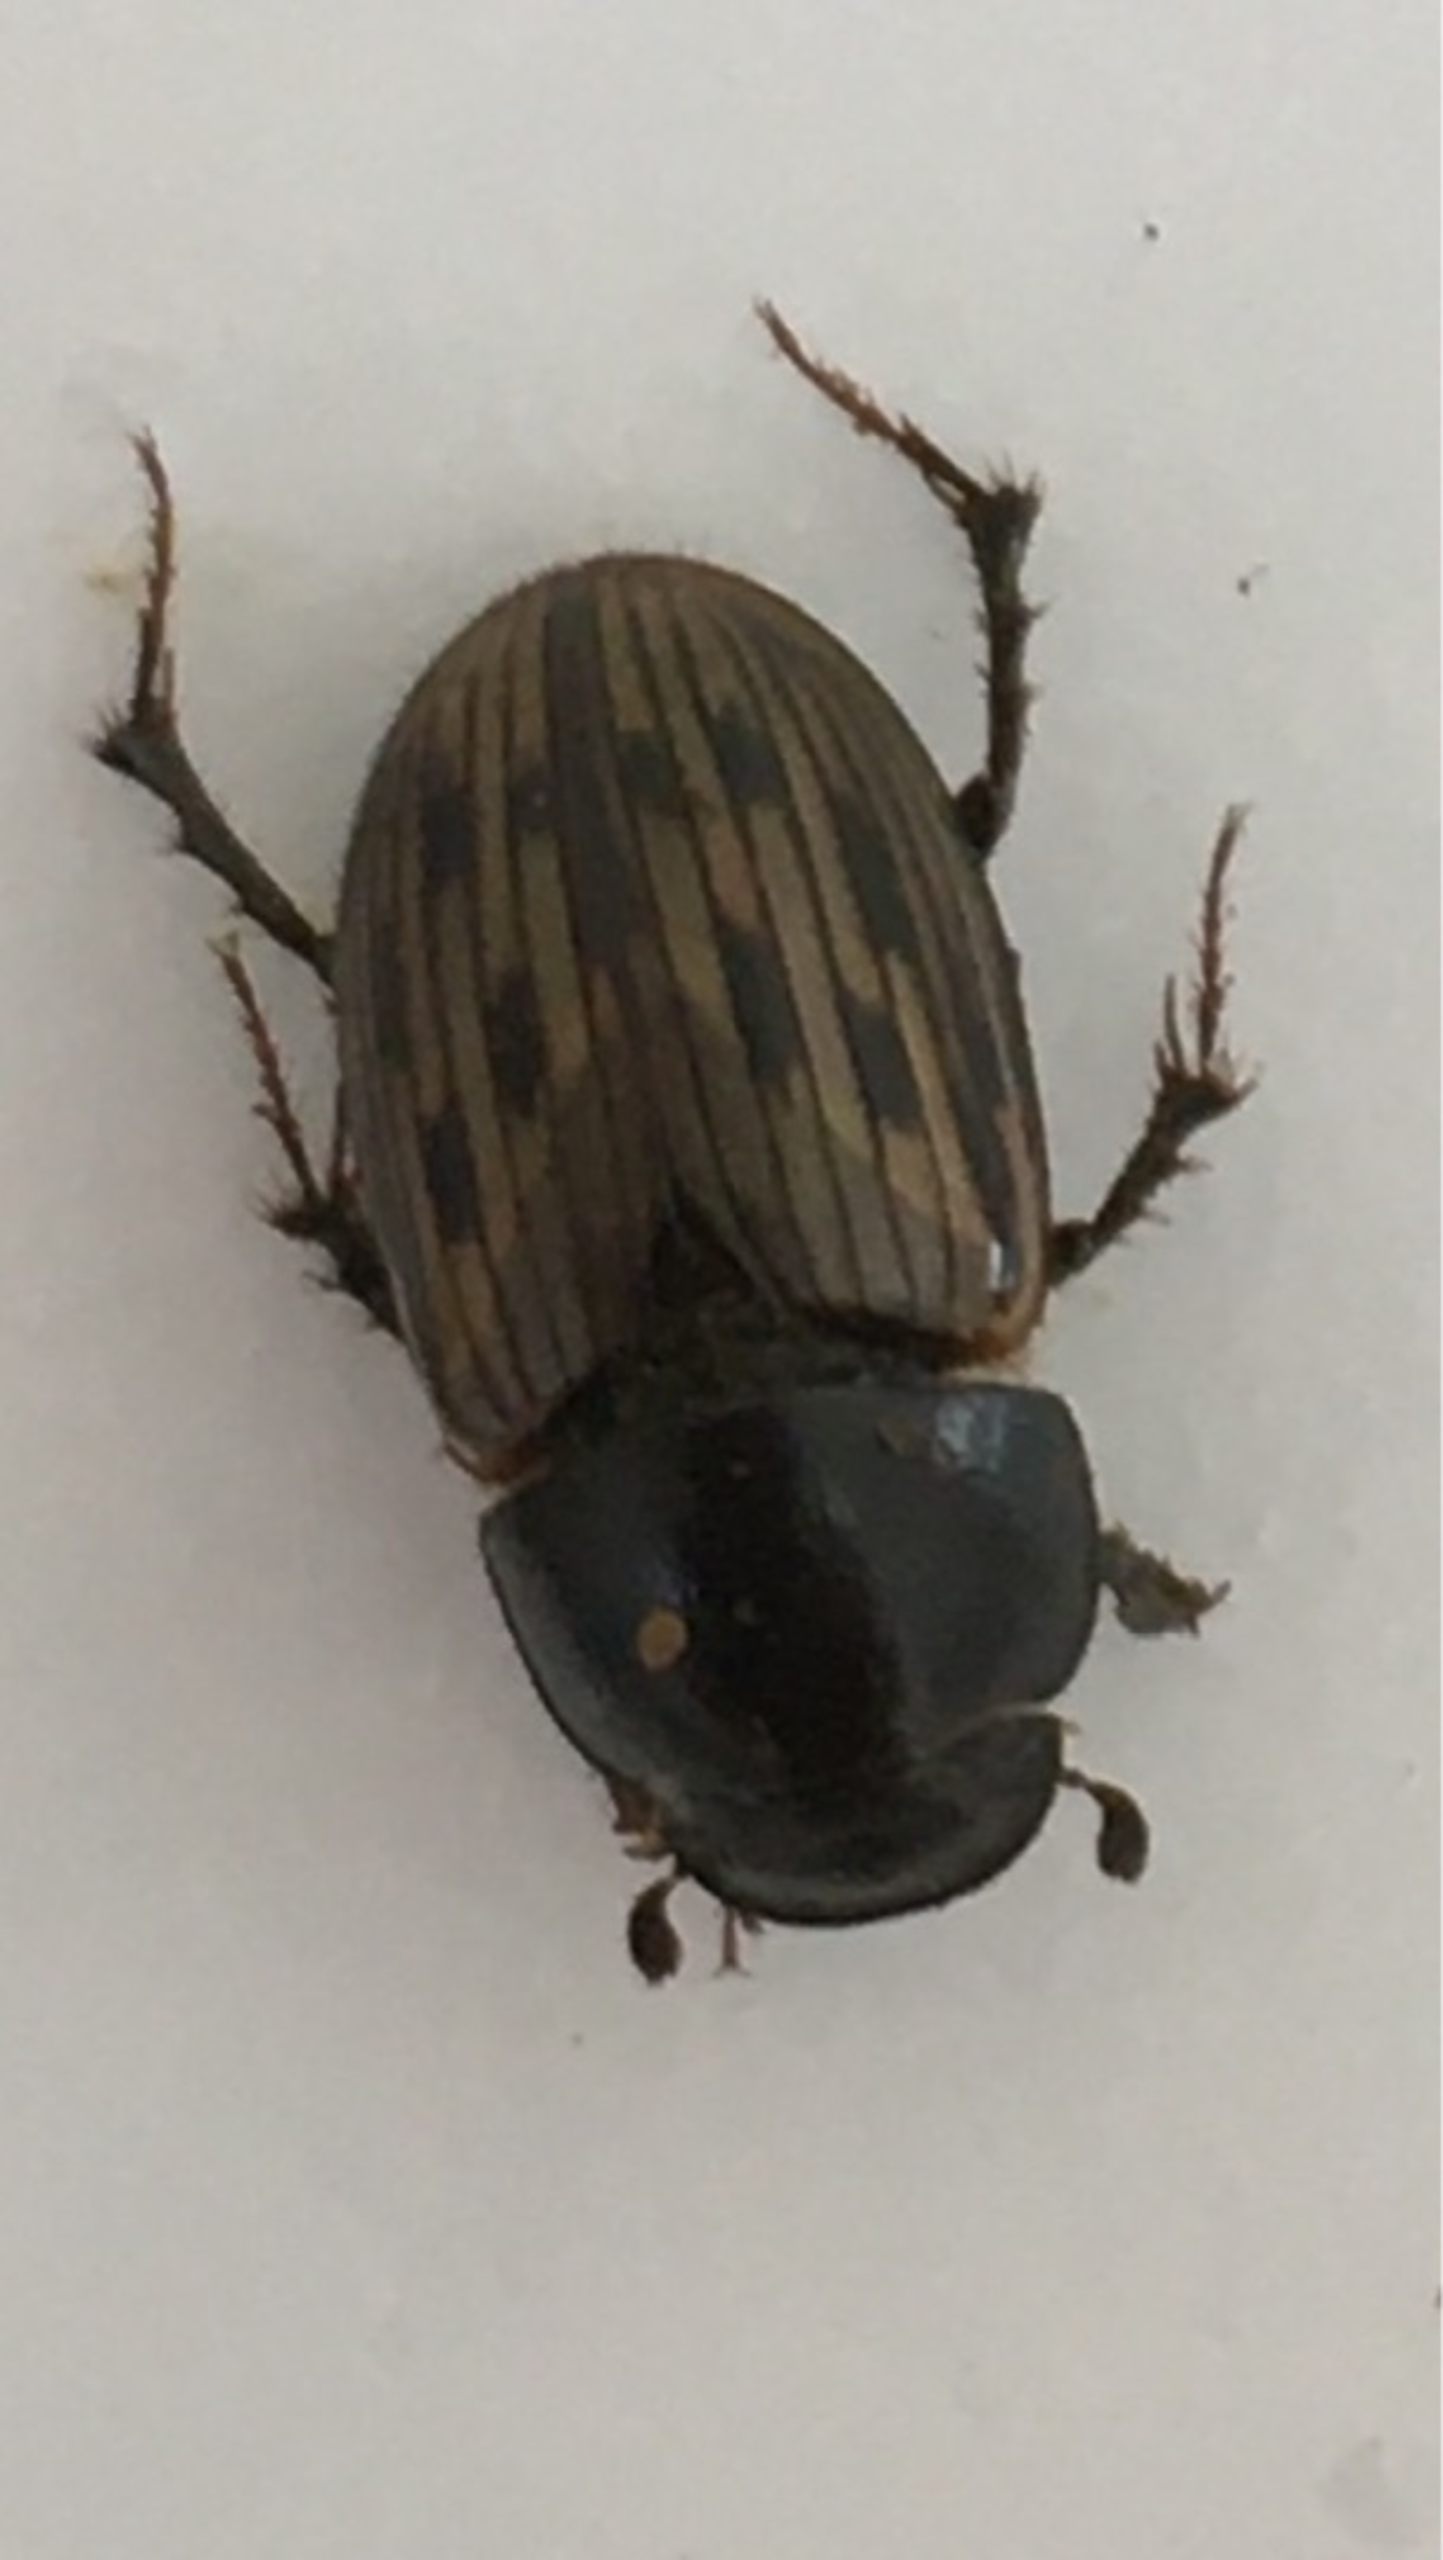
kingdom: Animalia
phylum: Arthropoda
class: Insecta
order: Coleoptera
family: Scarabaeidae
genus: Acrossus
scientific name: Acrossus luridus
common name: Ternet møgbille
